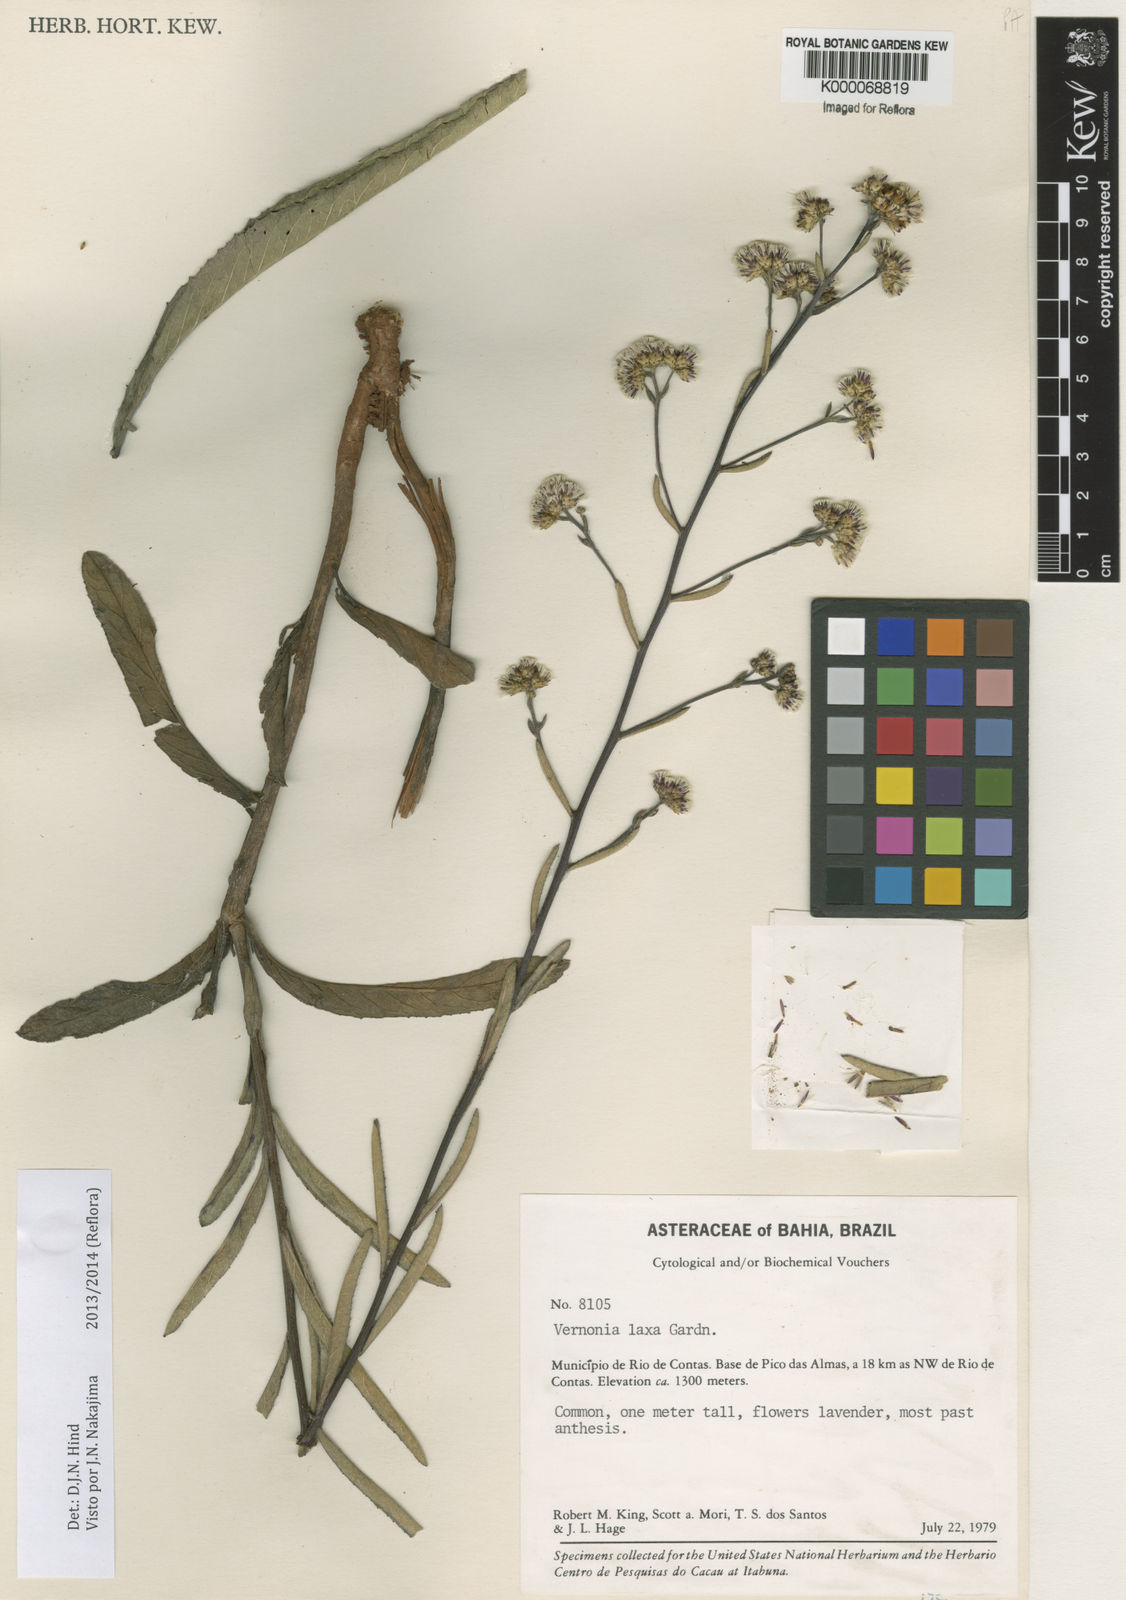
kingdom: Plantae
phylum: Tracheophyta
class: Magnoliopsida
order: Asterales
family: Asteraceae
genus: Vernonanthura
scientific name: Vernonanthura laxa
